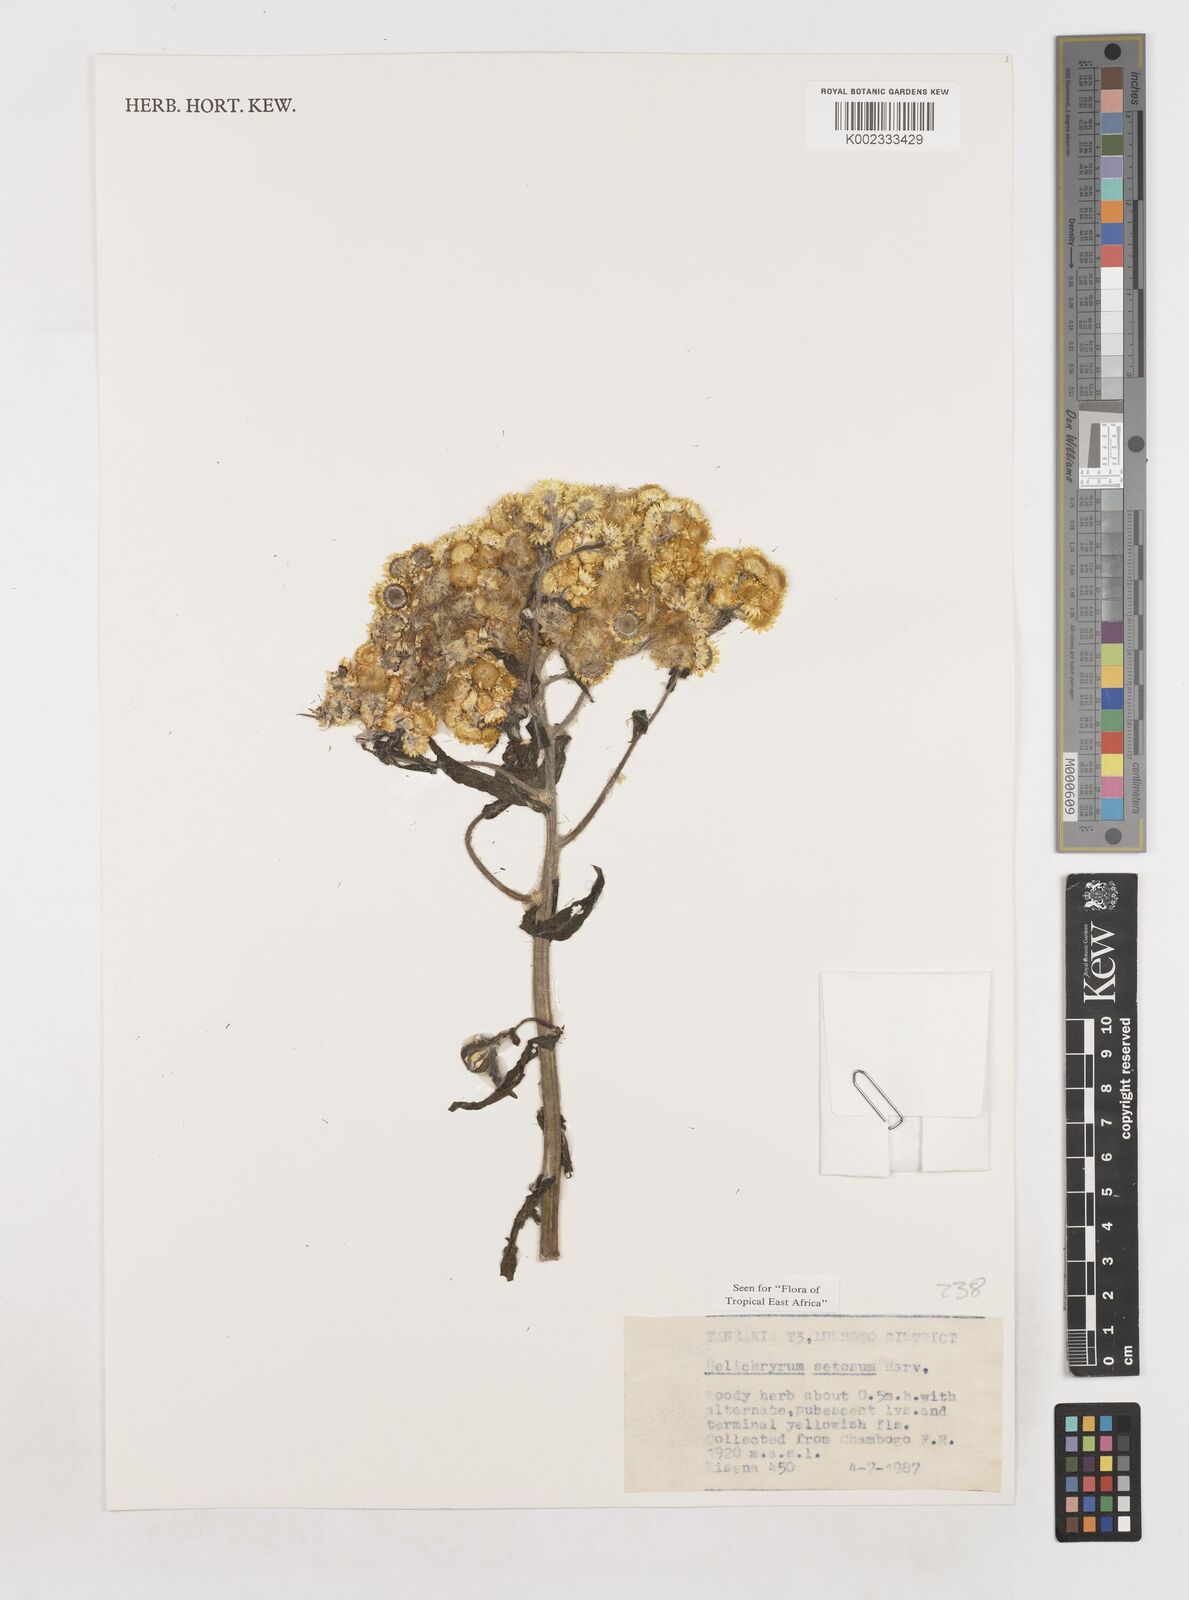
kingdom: Plantae
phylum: Tracheophyta
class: Magnoliopsida
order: Asterales
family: Asteraceae
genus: Helichrysum
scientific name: Helichrysum setosum
